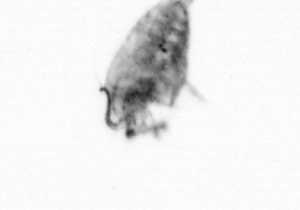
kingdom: Animalia
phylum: Arthropoda
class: Copepoda
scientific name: Copepoda
